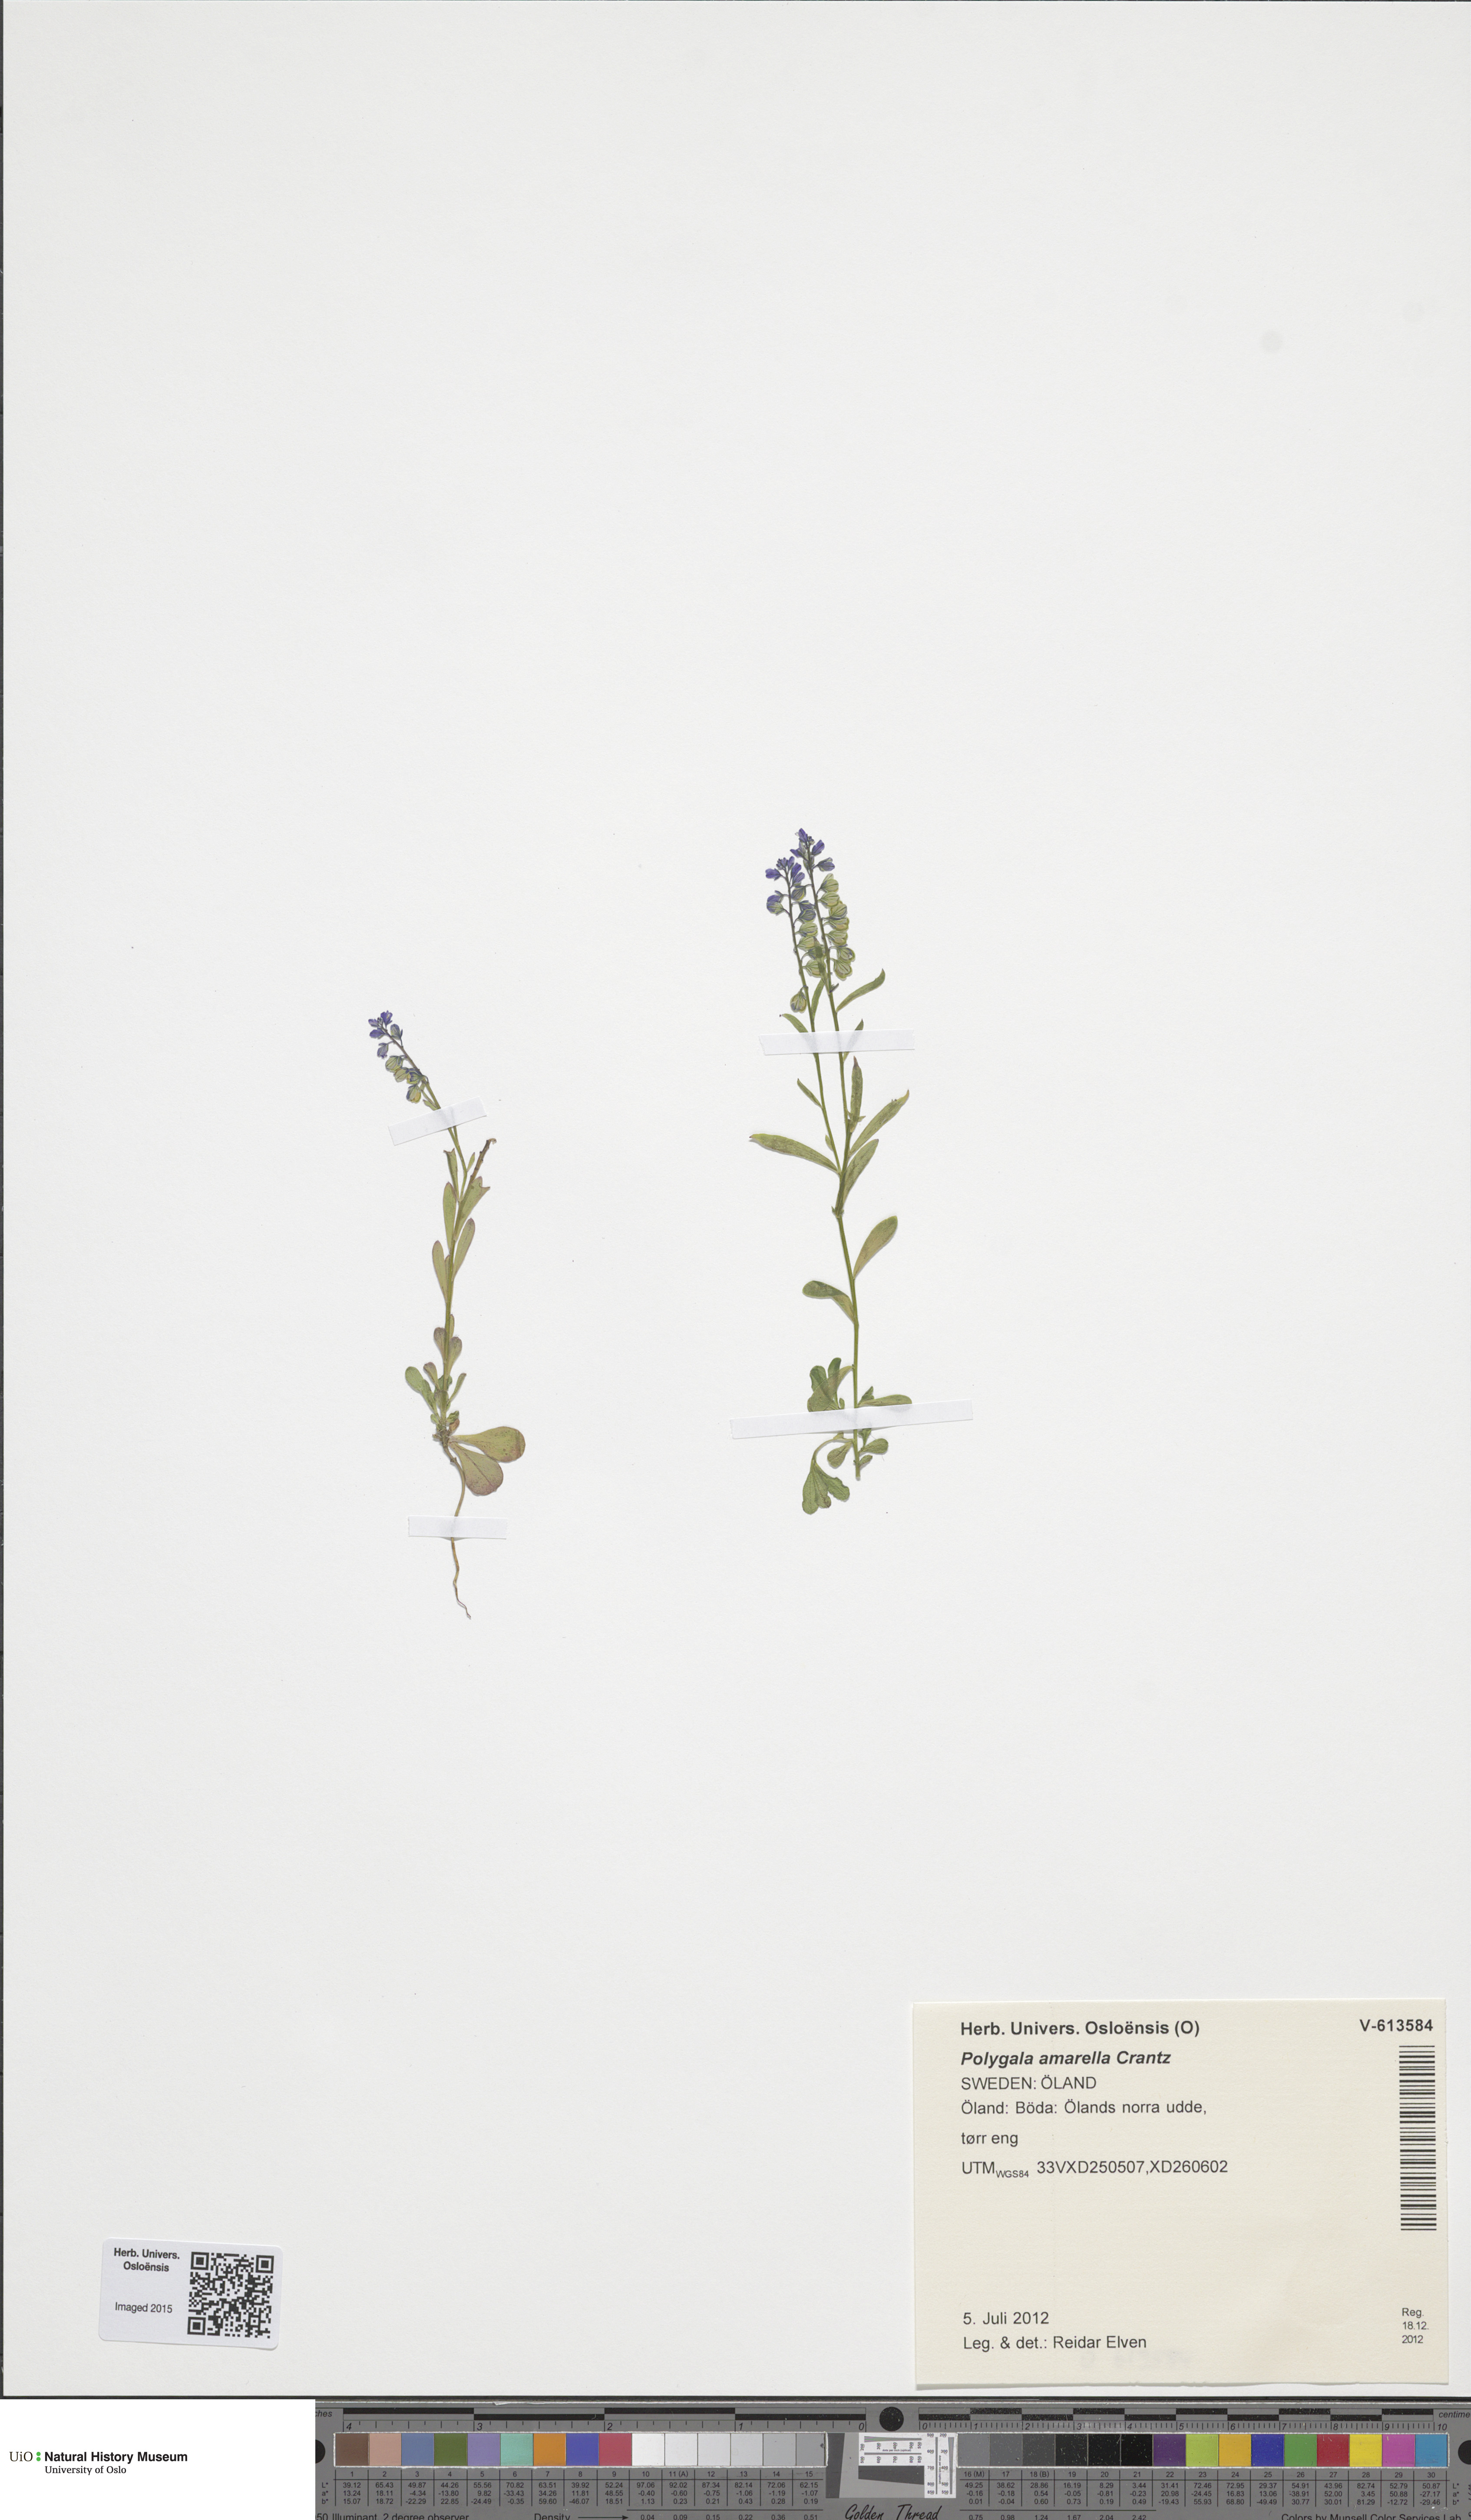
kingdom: Plantae
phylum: Tracheophyta
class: Magnoliopsida
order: Fabales
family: Polygalaceae
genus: Polygala
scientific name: Polygala amarella
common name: Dwarf milkwort
